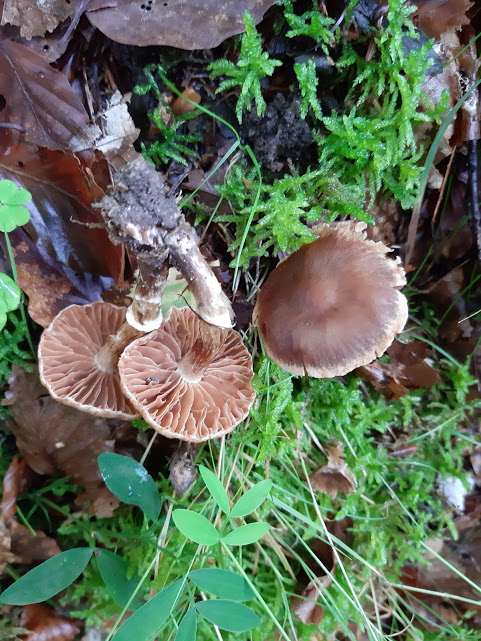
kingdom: Fungi
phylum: Basidiomycota
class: Agaricomycetes
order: Agaricales
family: Cortinariaceae
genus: Cortinarius
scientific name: Cortinarius
